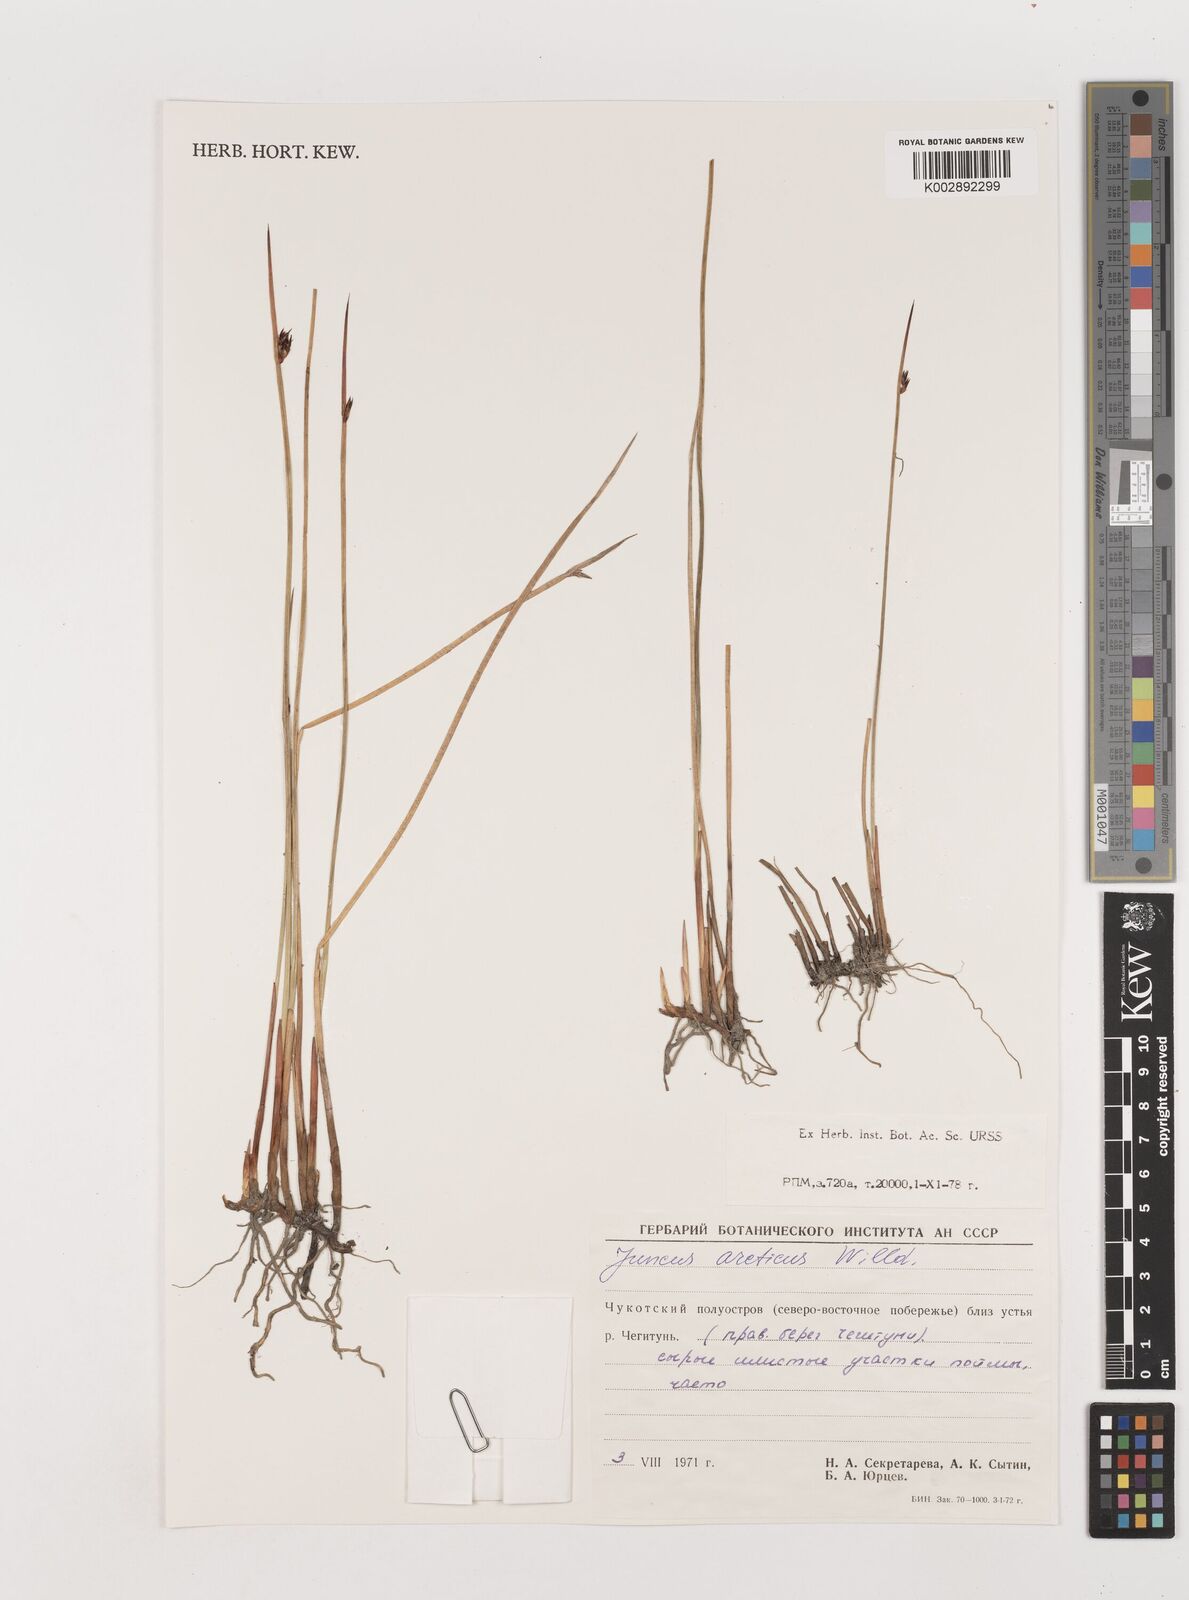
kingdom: Plantae
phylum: Tracheophyta
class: Liliopsida
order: Poales
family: Juncaceae
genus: Juncus
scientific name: Juncus arcticus
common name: Arctic rush
